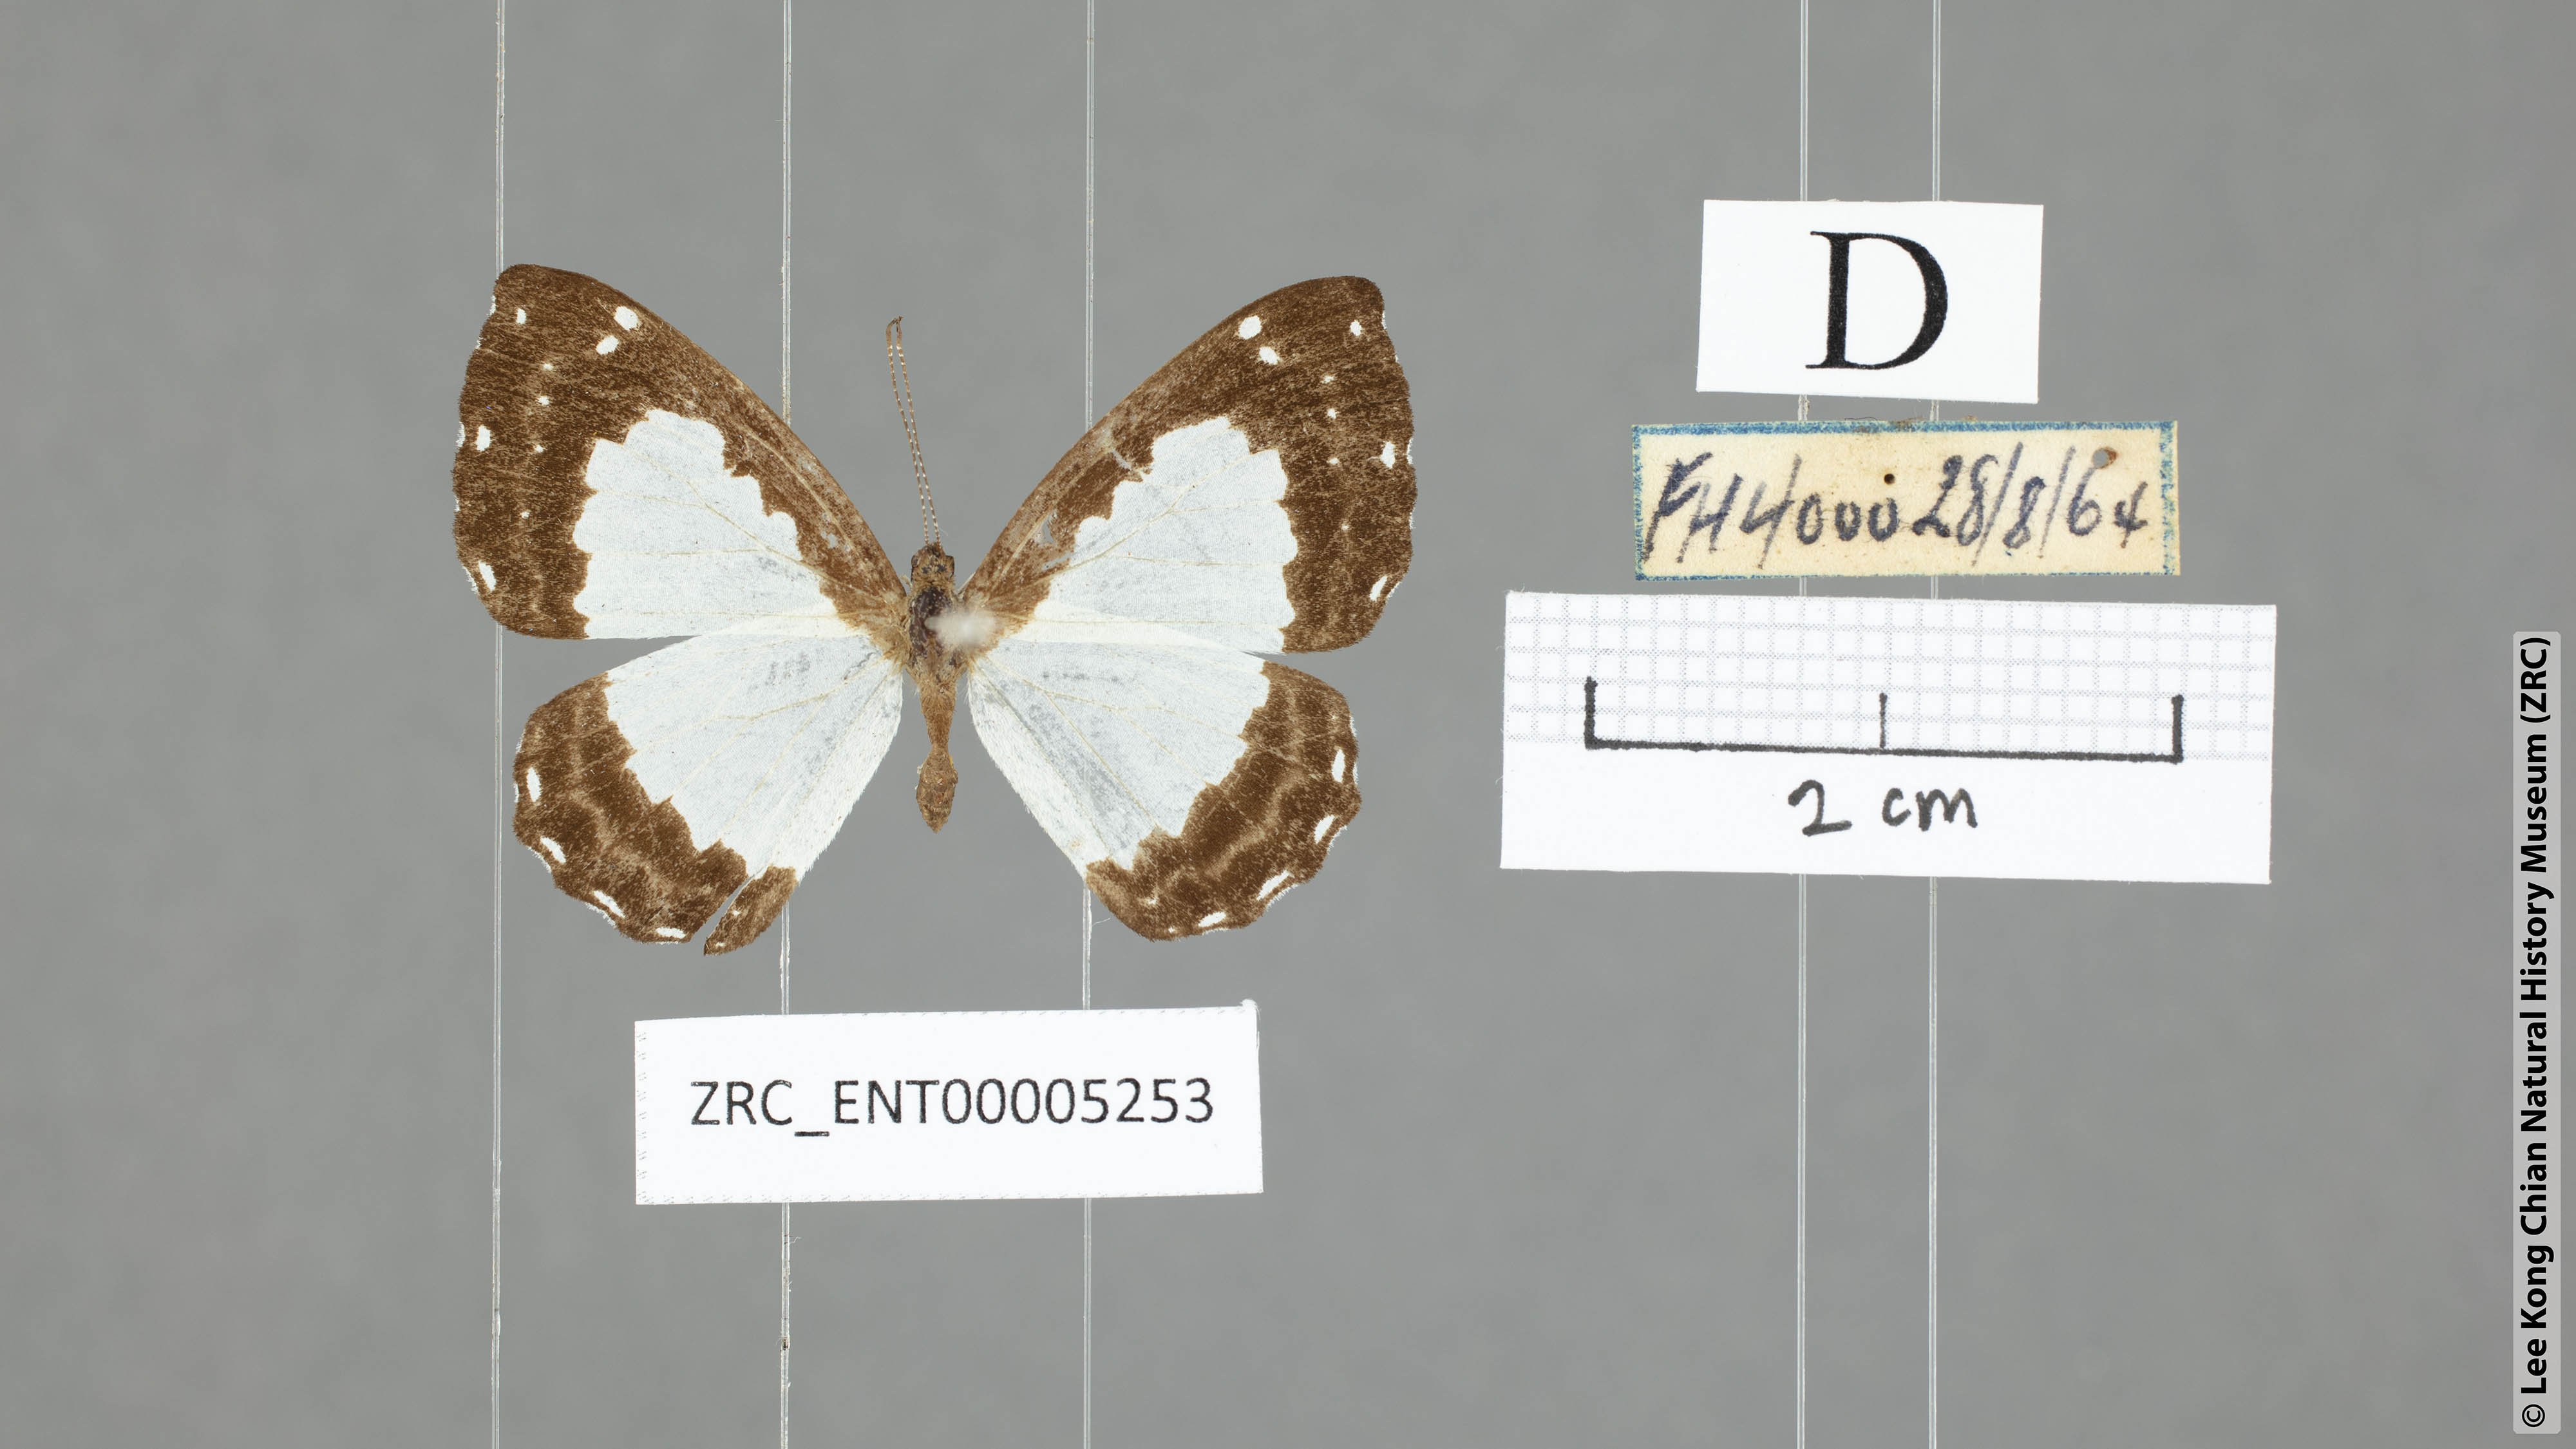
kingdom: Animalia
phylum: Arthropoda
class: Insecta
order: Lepidoptera
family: Riodinidae
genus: Stiboges
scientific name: Stiboges nymphidia
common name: Columbine
